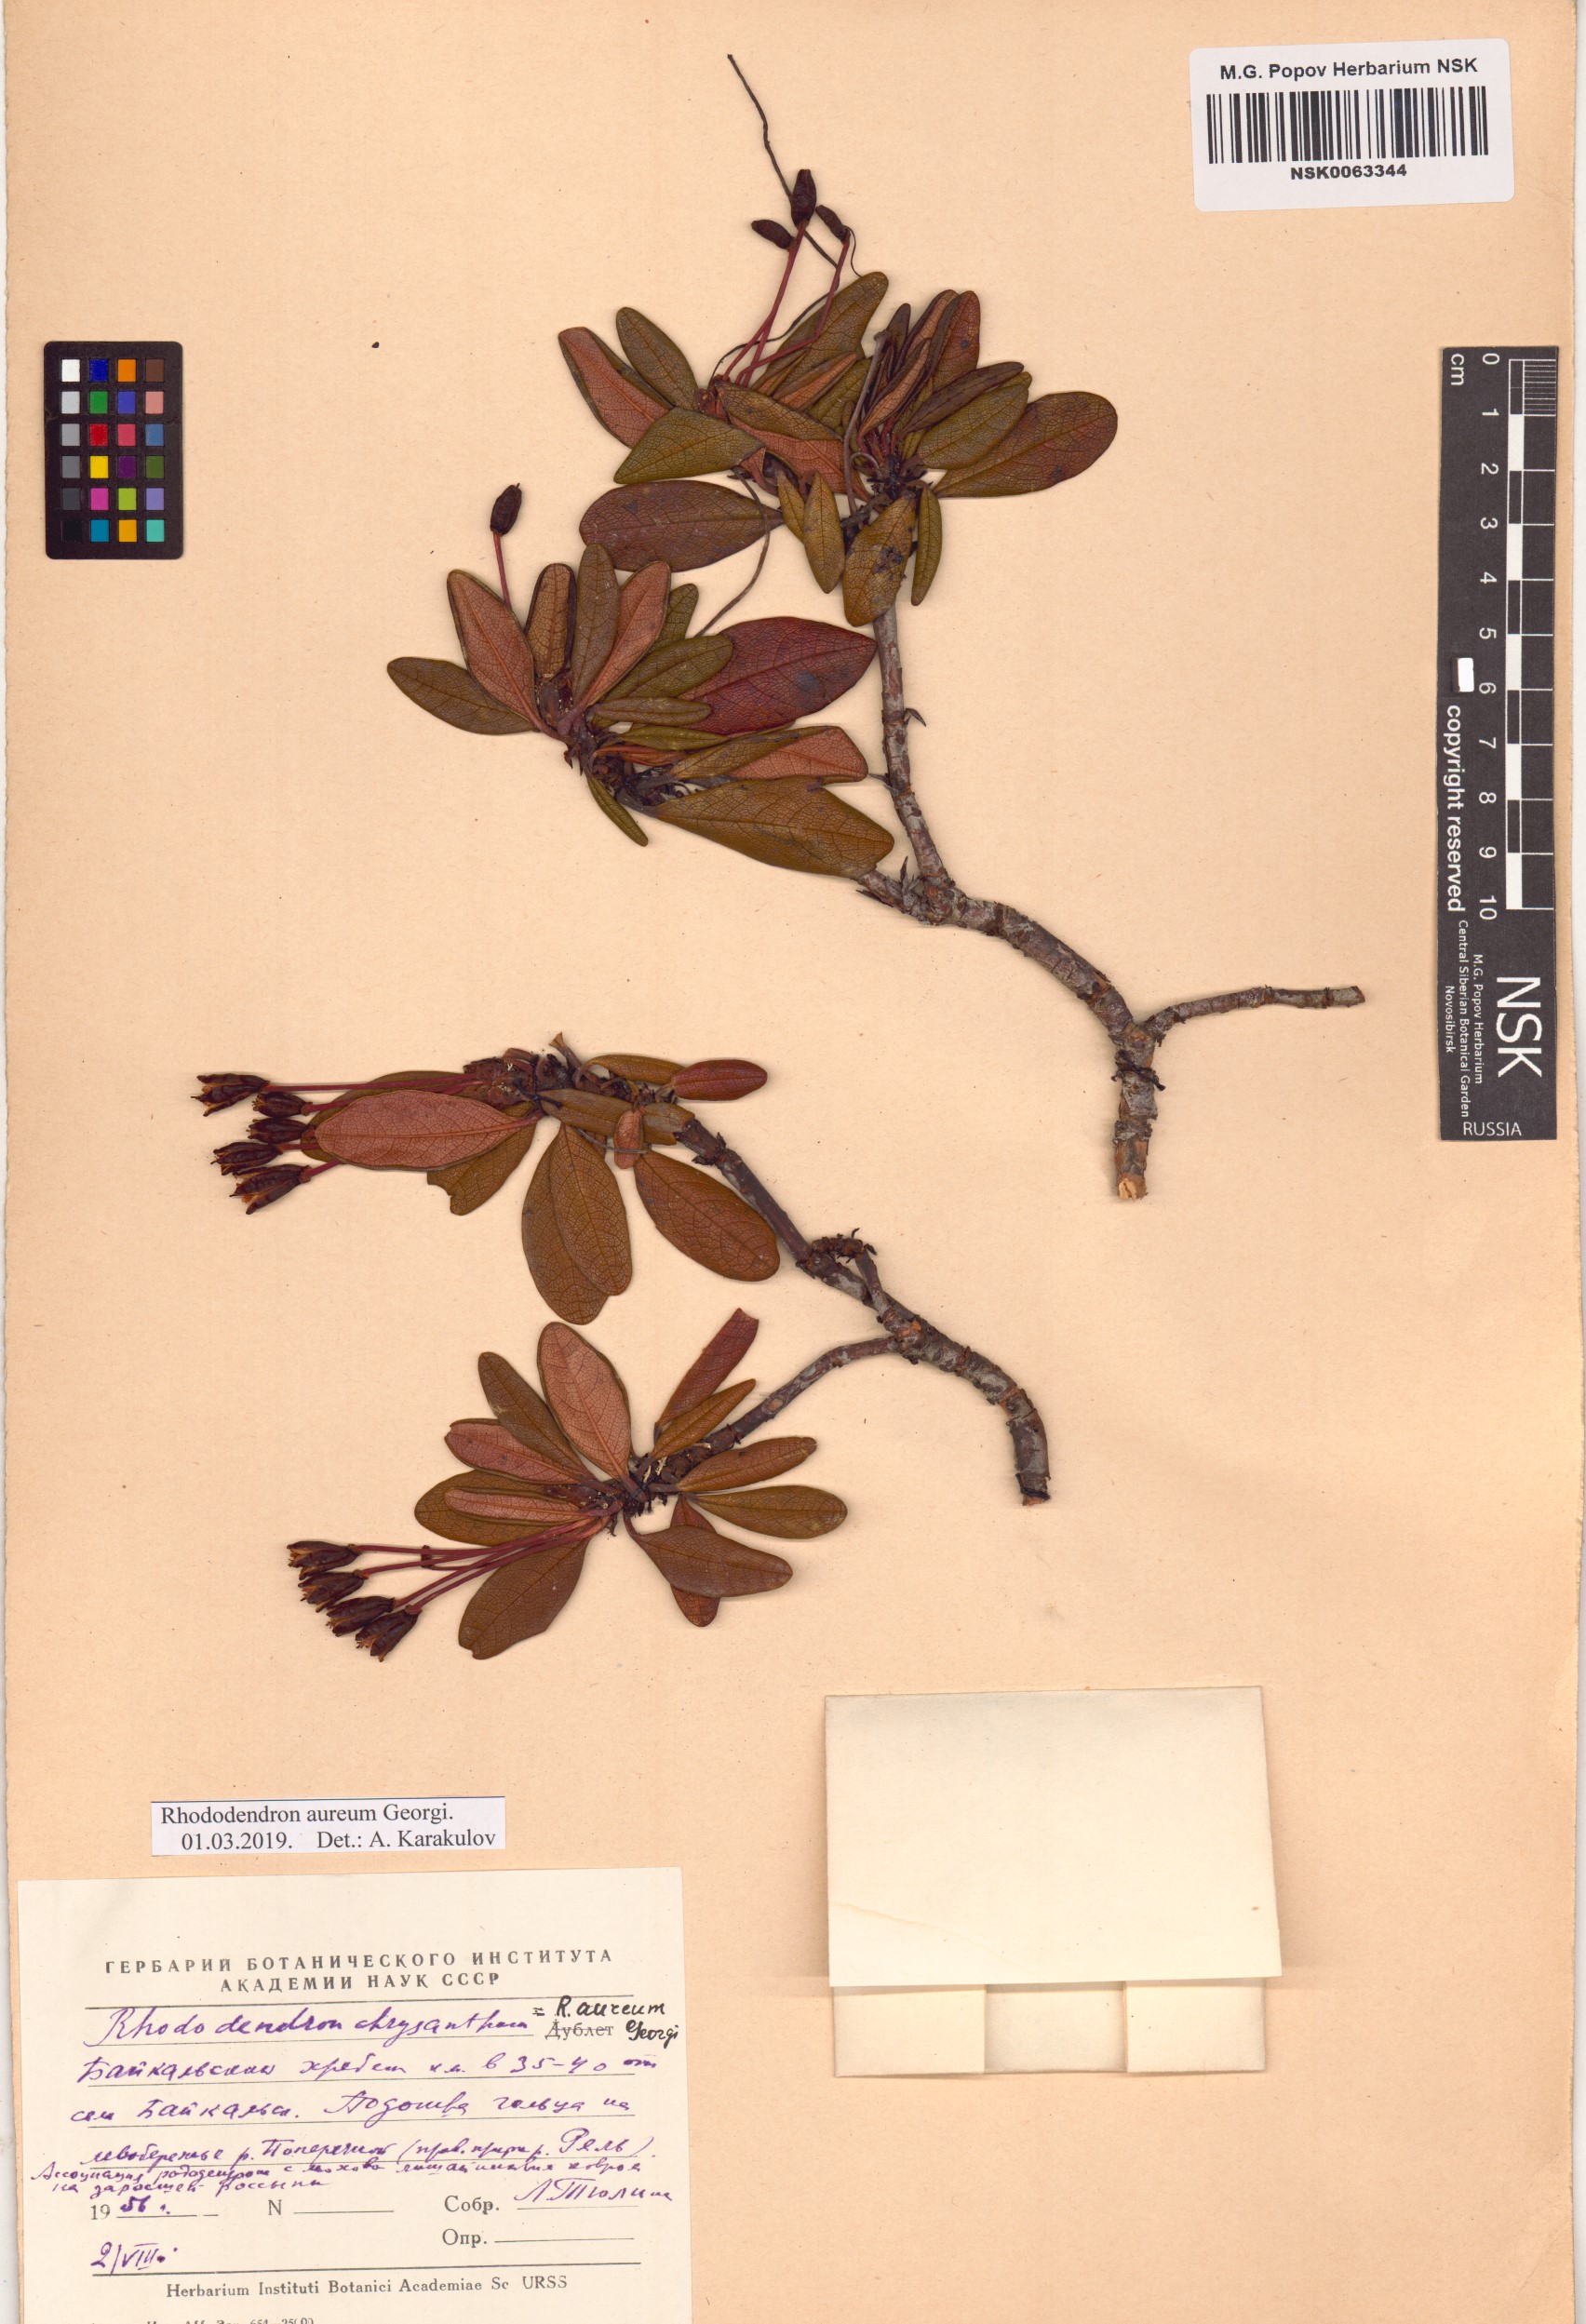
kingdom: Plantae
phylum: Tracheophyta
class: Magnoliopsida
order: Ericales
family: Ericaceae
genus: Rhododendron
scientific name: Rhododendron aureum
